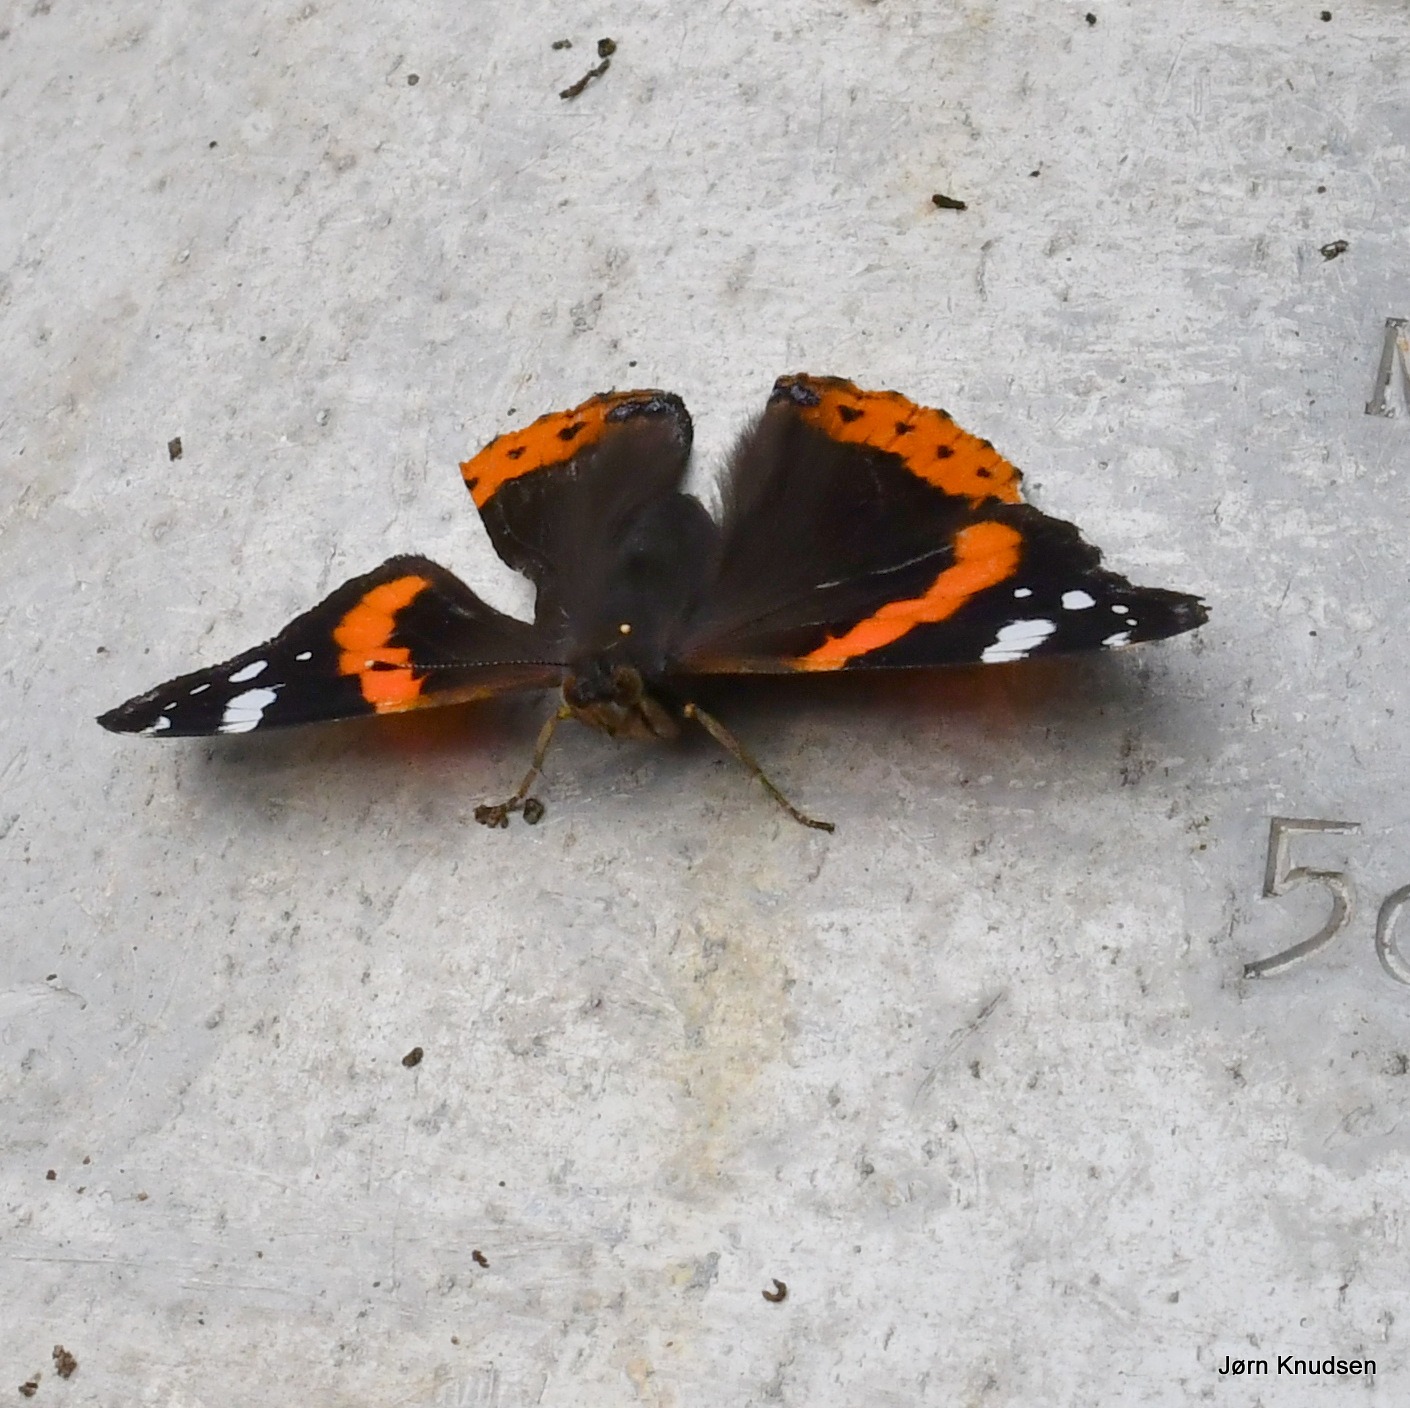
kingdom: Animalia
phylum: Arthropoda
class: Insecta
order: Lepidoptera
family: Nymphalidae
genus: Vanessa
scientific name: Vanessa atalanta
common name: Admiral
